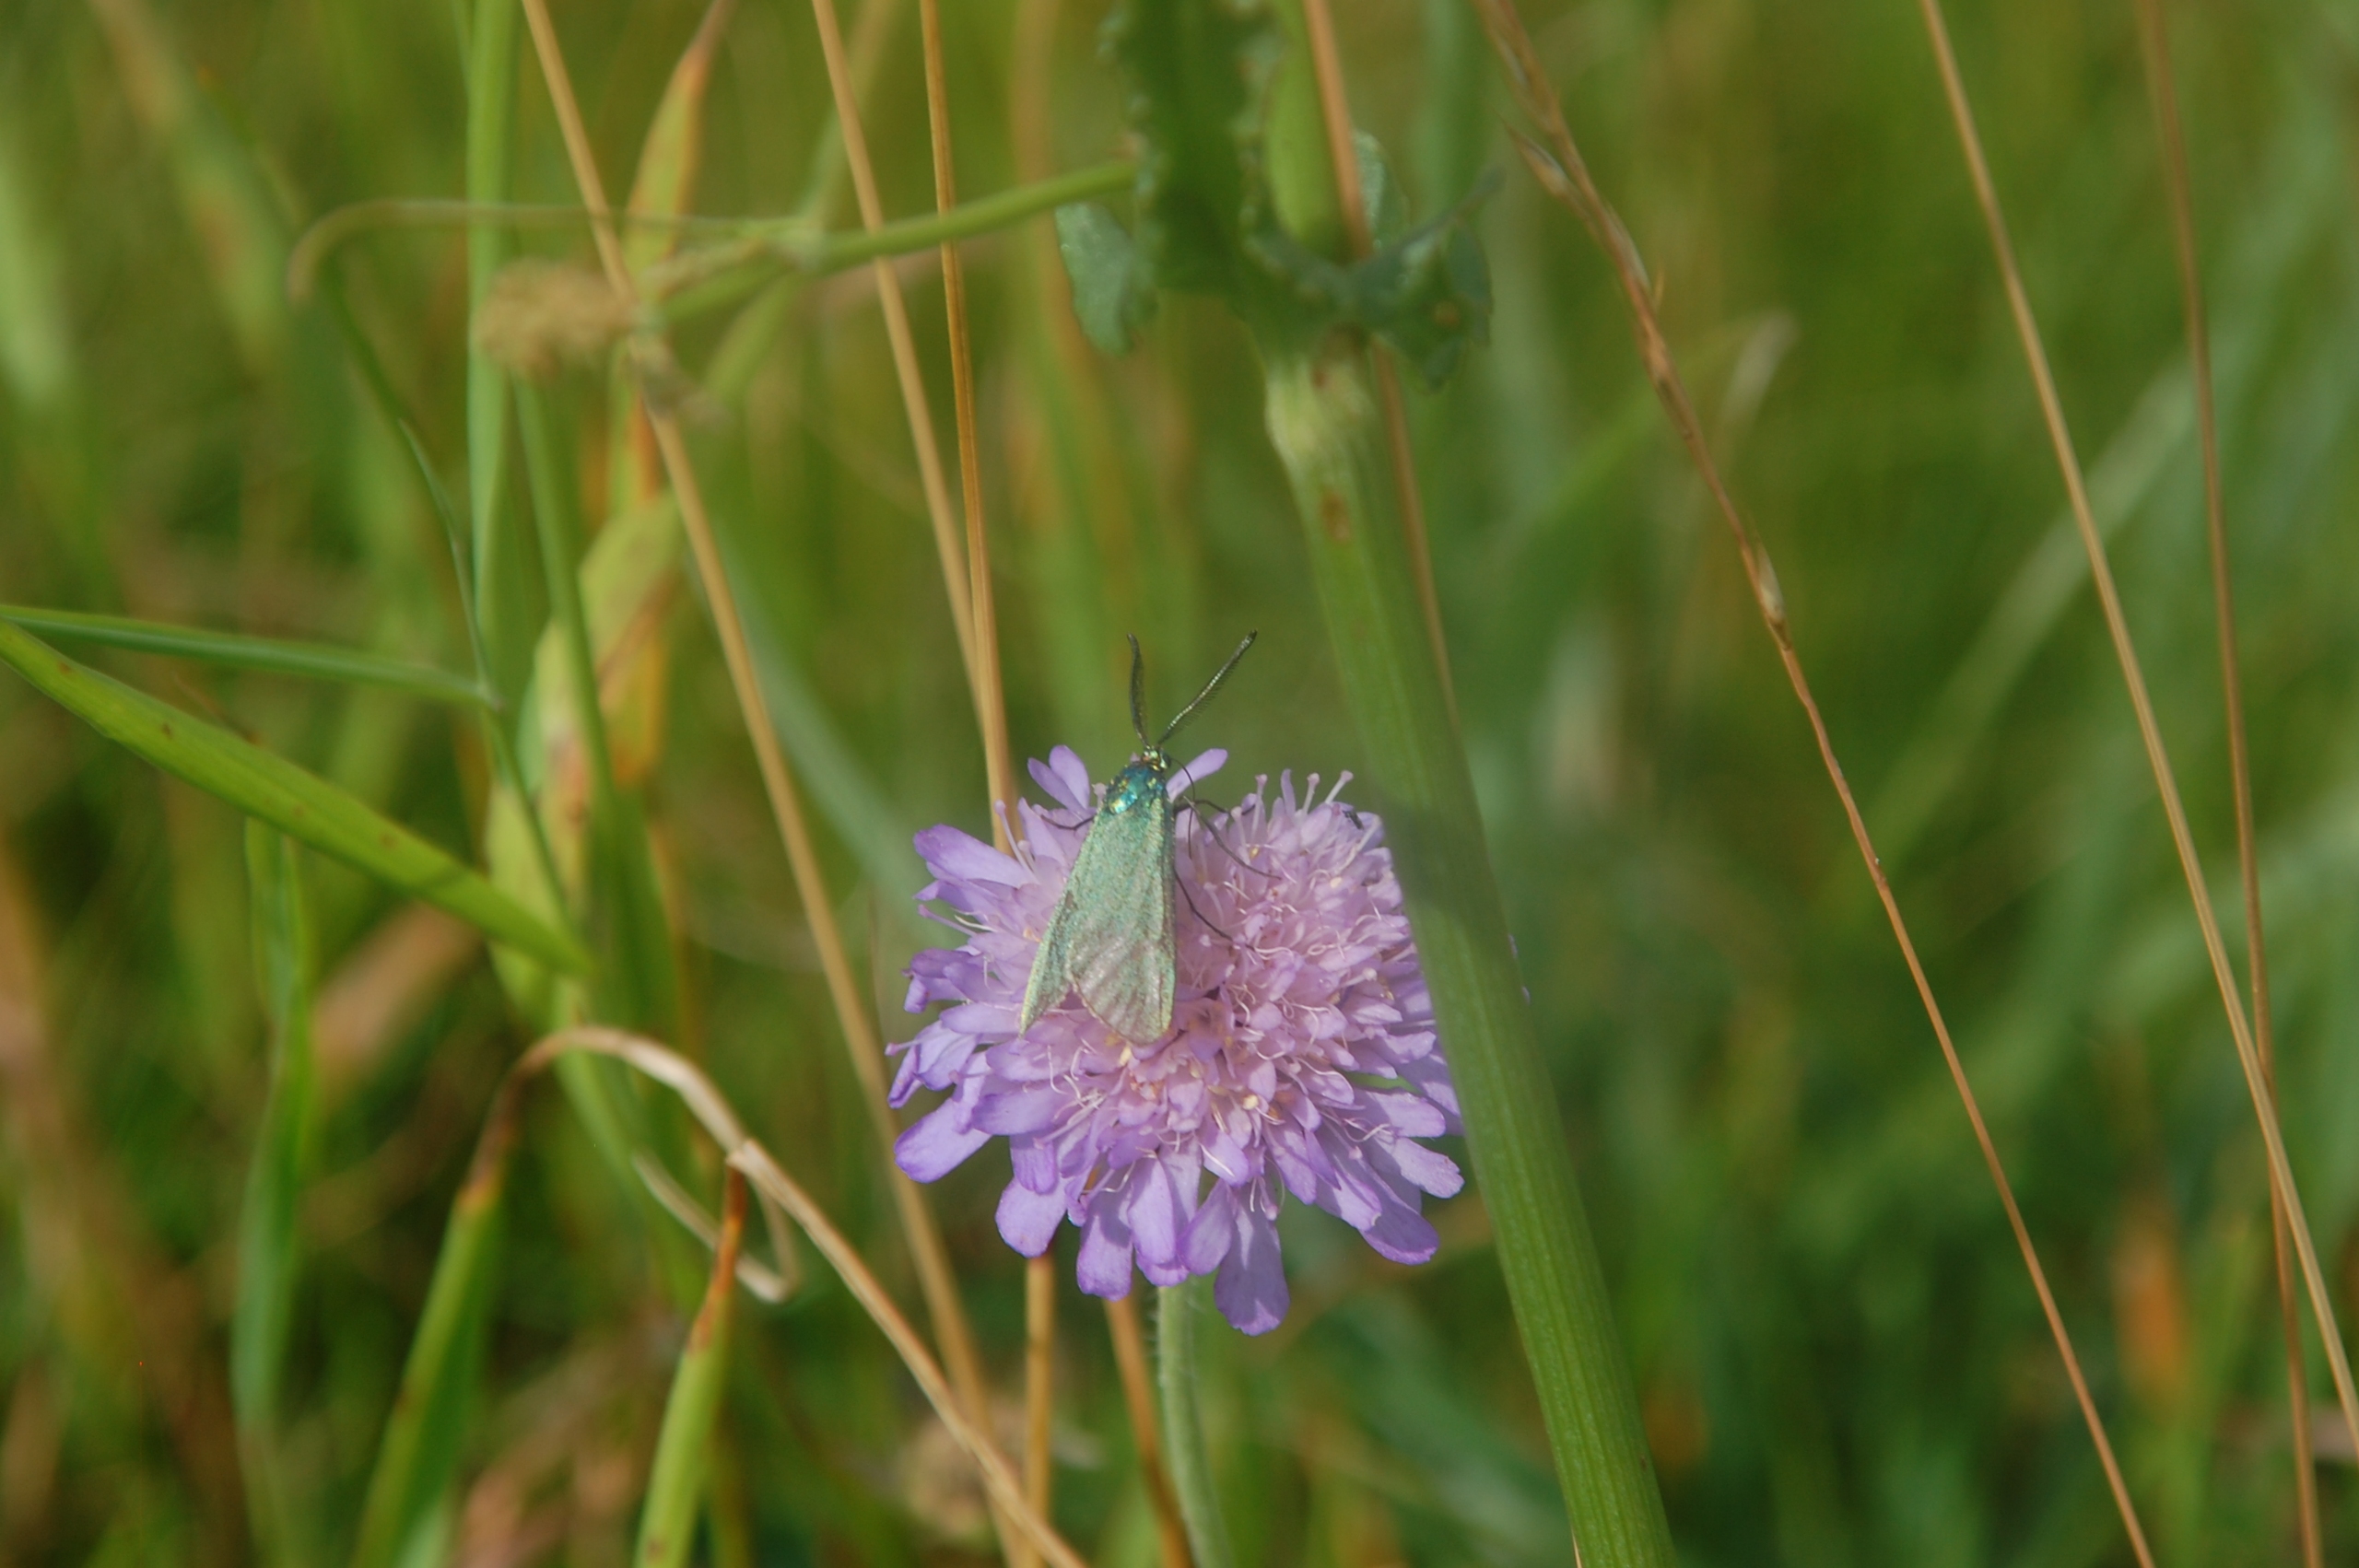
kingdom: Animalia
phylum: Arthropoda
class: Insecta
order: Lepidoptera
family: Zygaenidae
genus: Adscita
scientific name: Adscita statices
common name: Metalvinge
